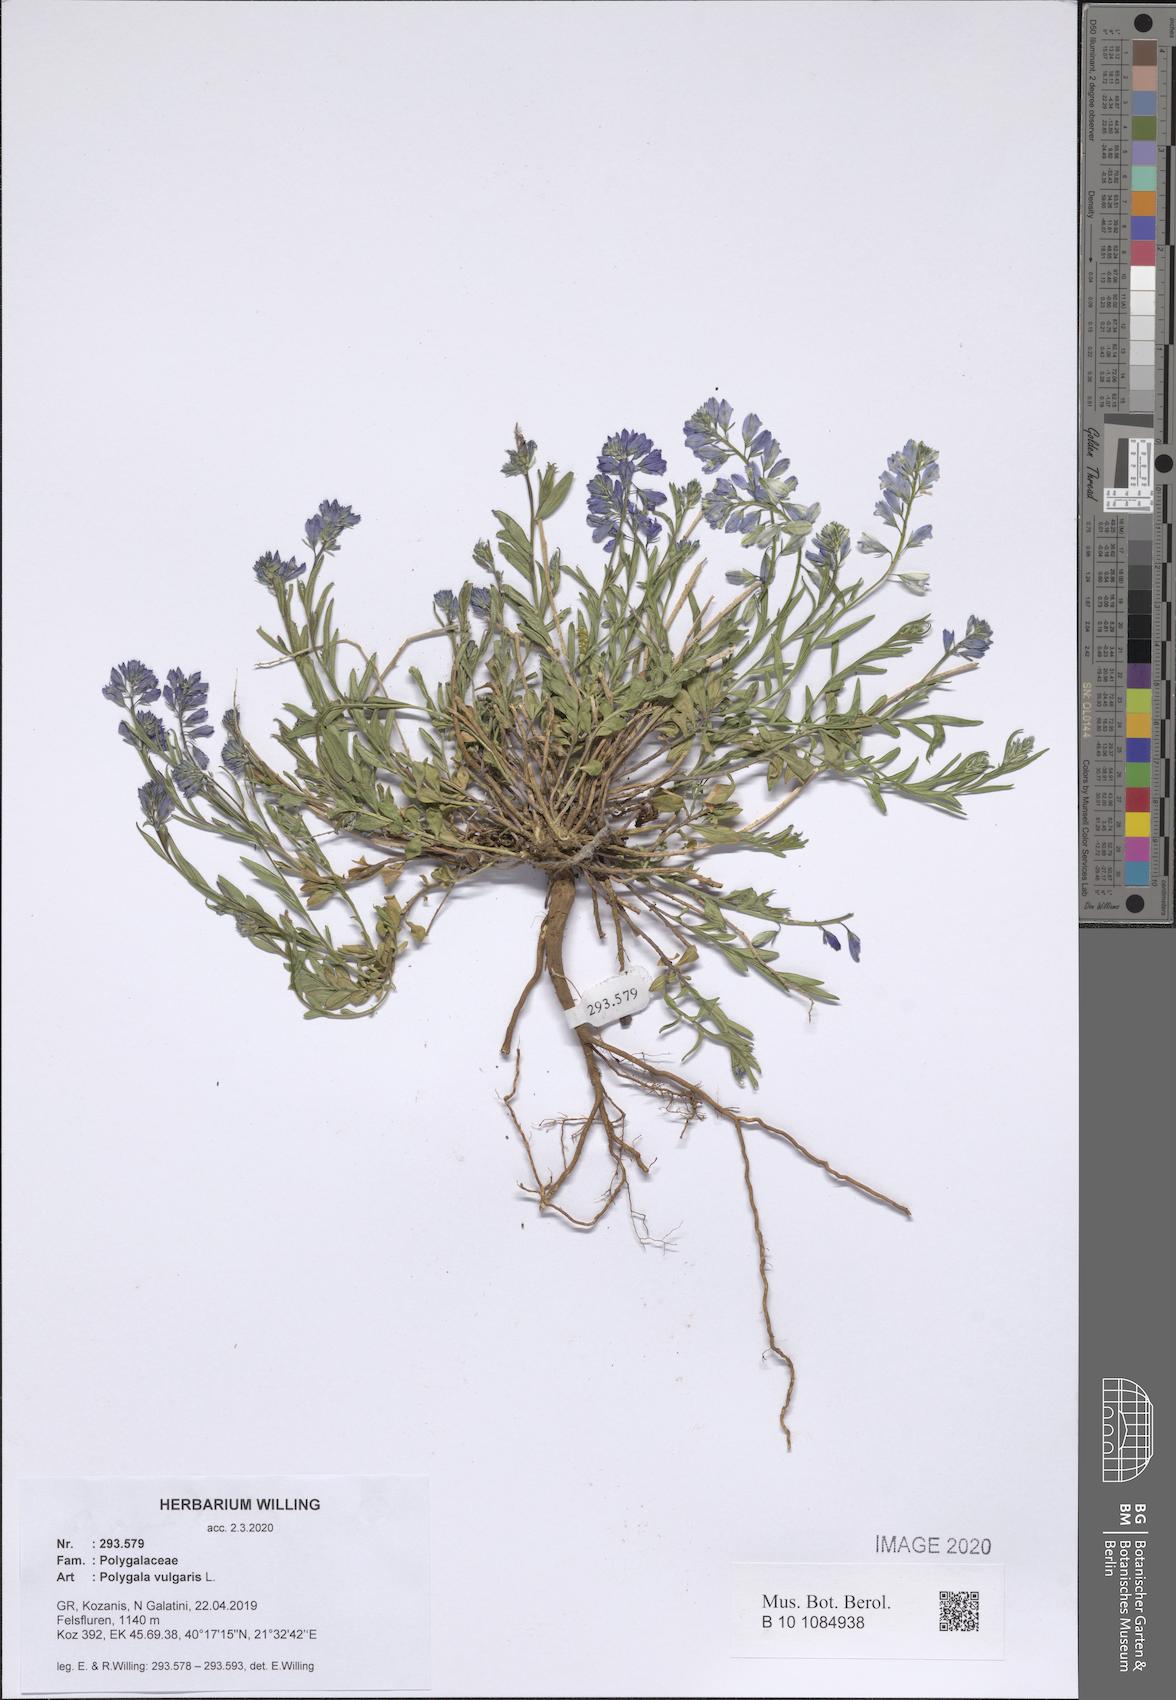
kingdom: Plantae
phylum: Tracheophyta
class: Magnoliopsida
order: Fabales
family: Polygalaceae
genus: Polygala
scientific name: Polygala vulgaris
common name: Common milkwort
